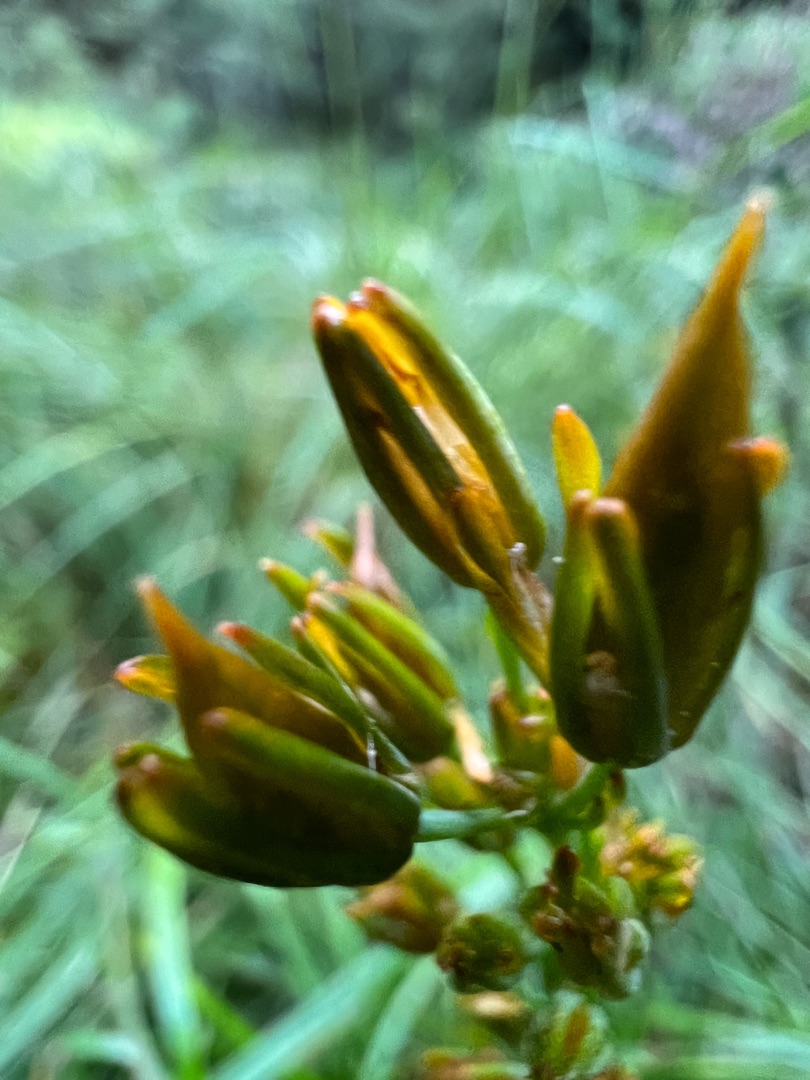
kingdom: Plantae
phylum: Tracheophyta
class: Liliopsida
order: Dioscoreales
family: Nartheciaceae
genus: Narthecium
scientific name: Narthecium ossifragum
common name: Benbræk
